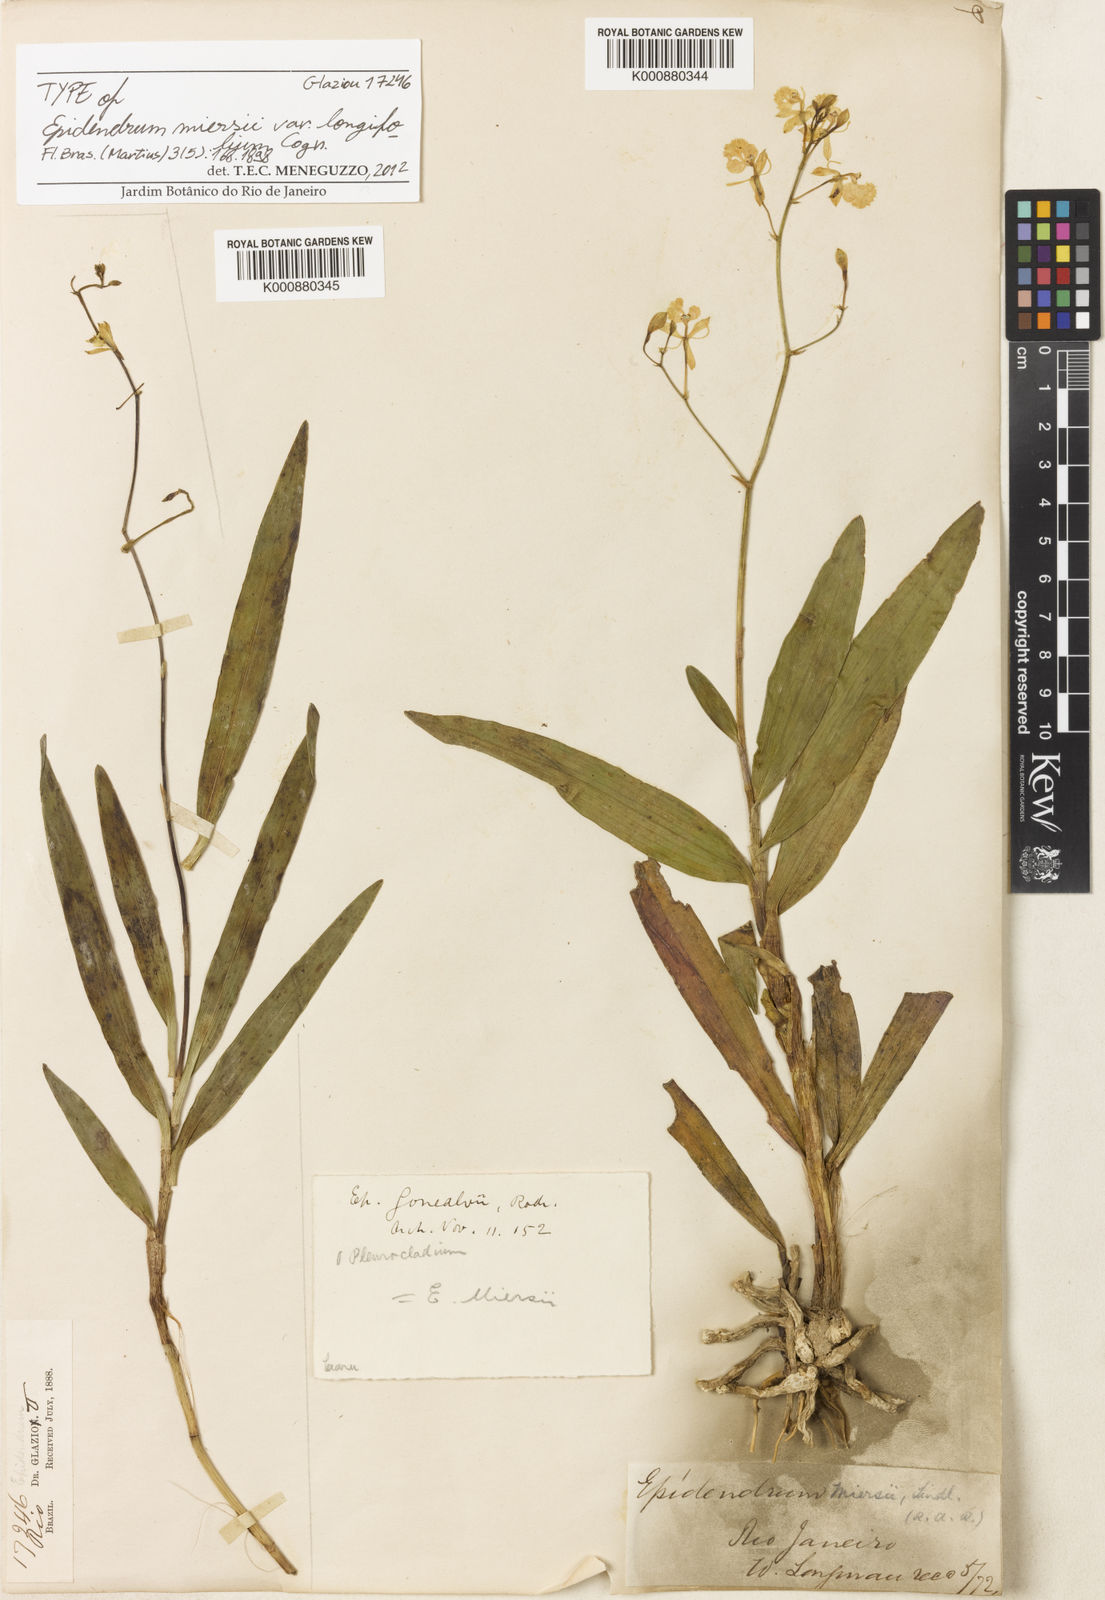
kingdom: Plantae
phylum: Tracheophyta
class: Liliopsida
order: Asparagales
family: Orchidaceae
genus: Epidendrum
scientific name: Epidendrum saxatile
